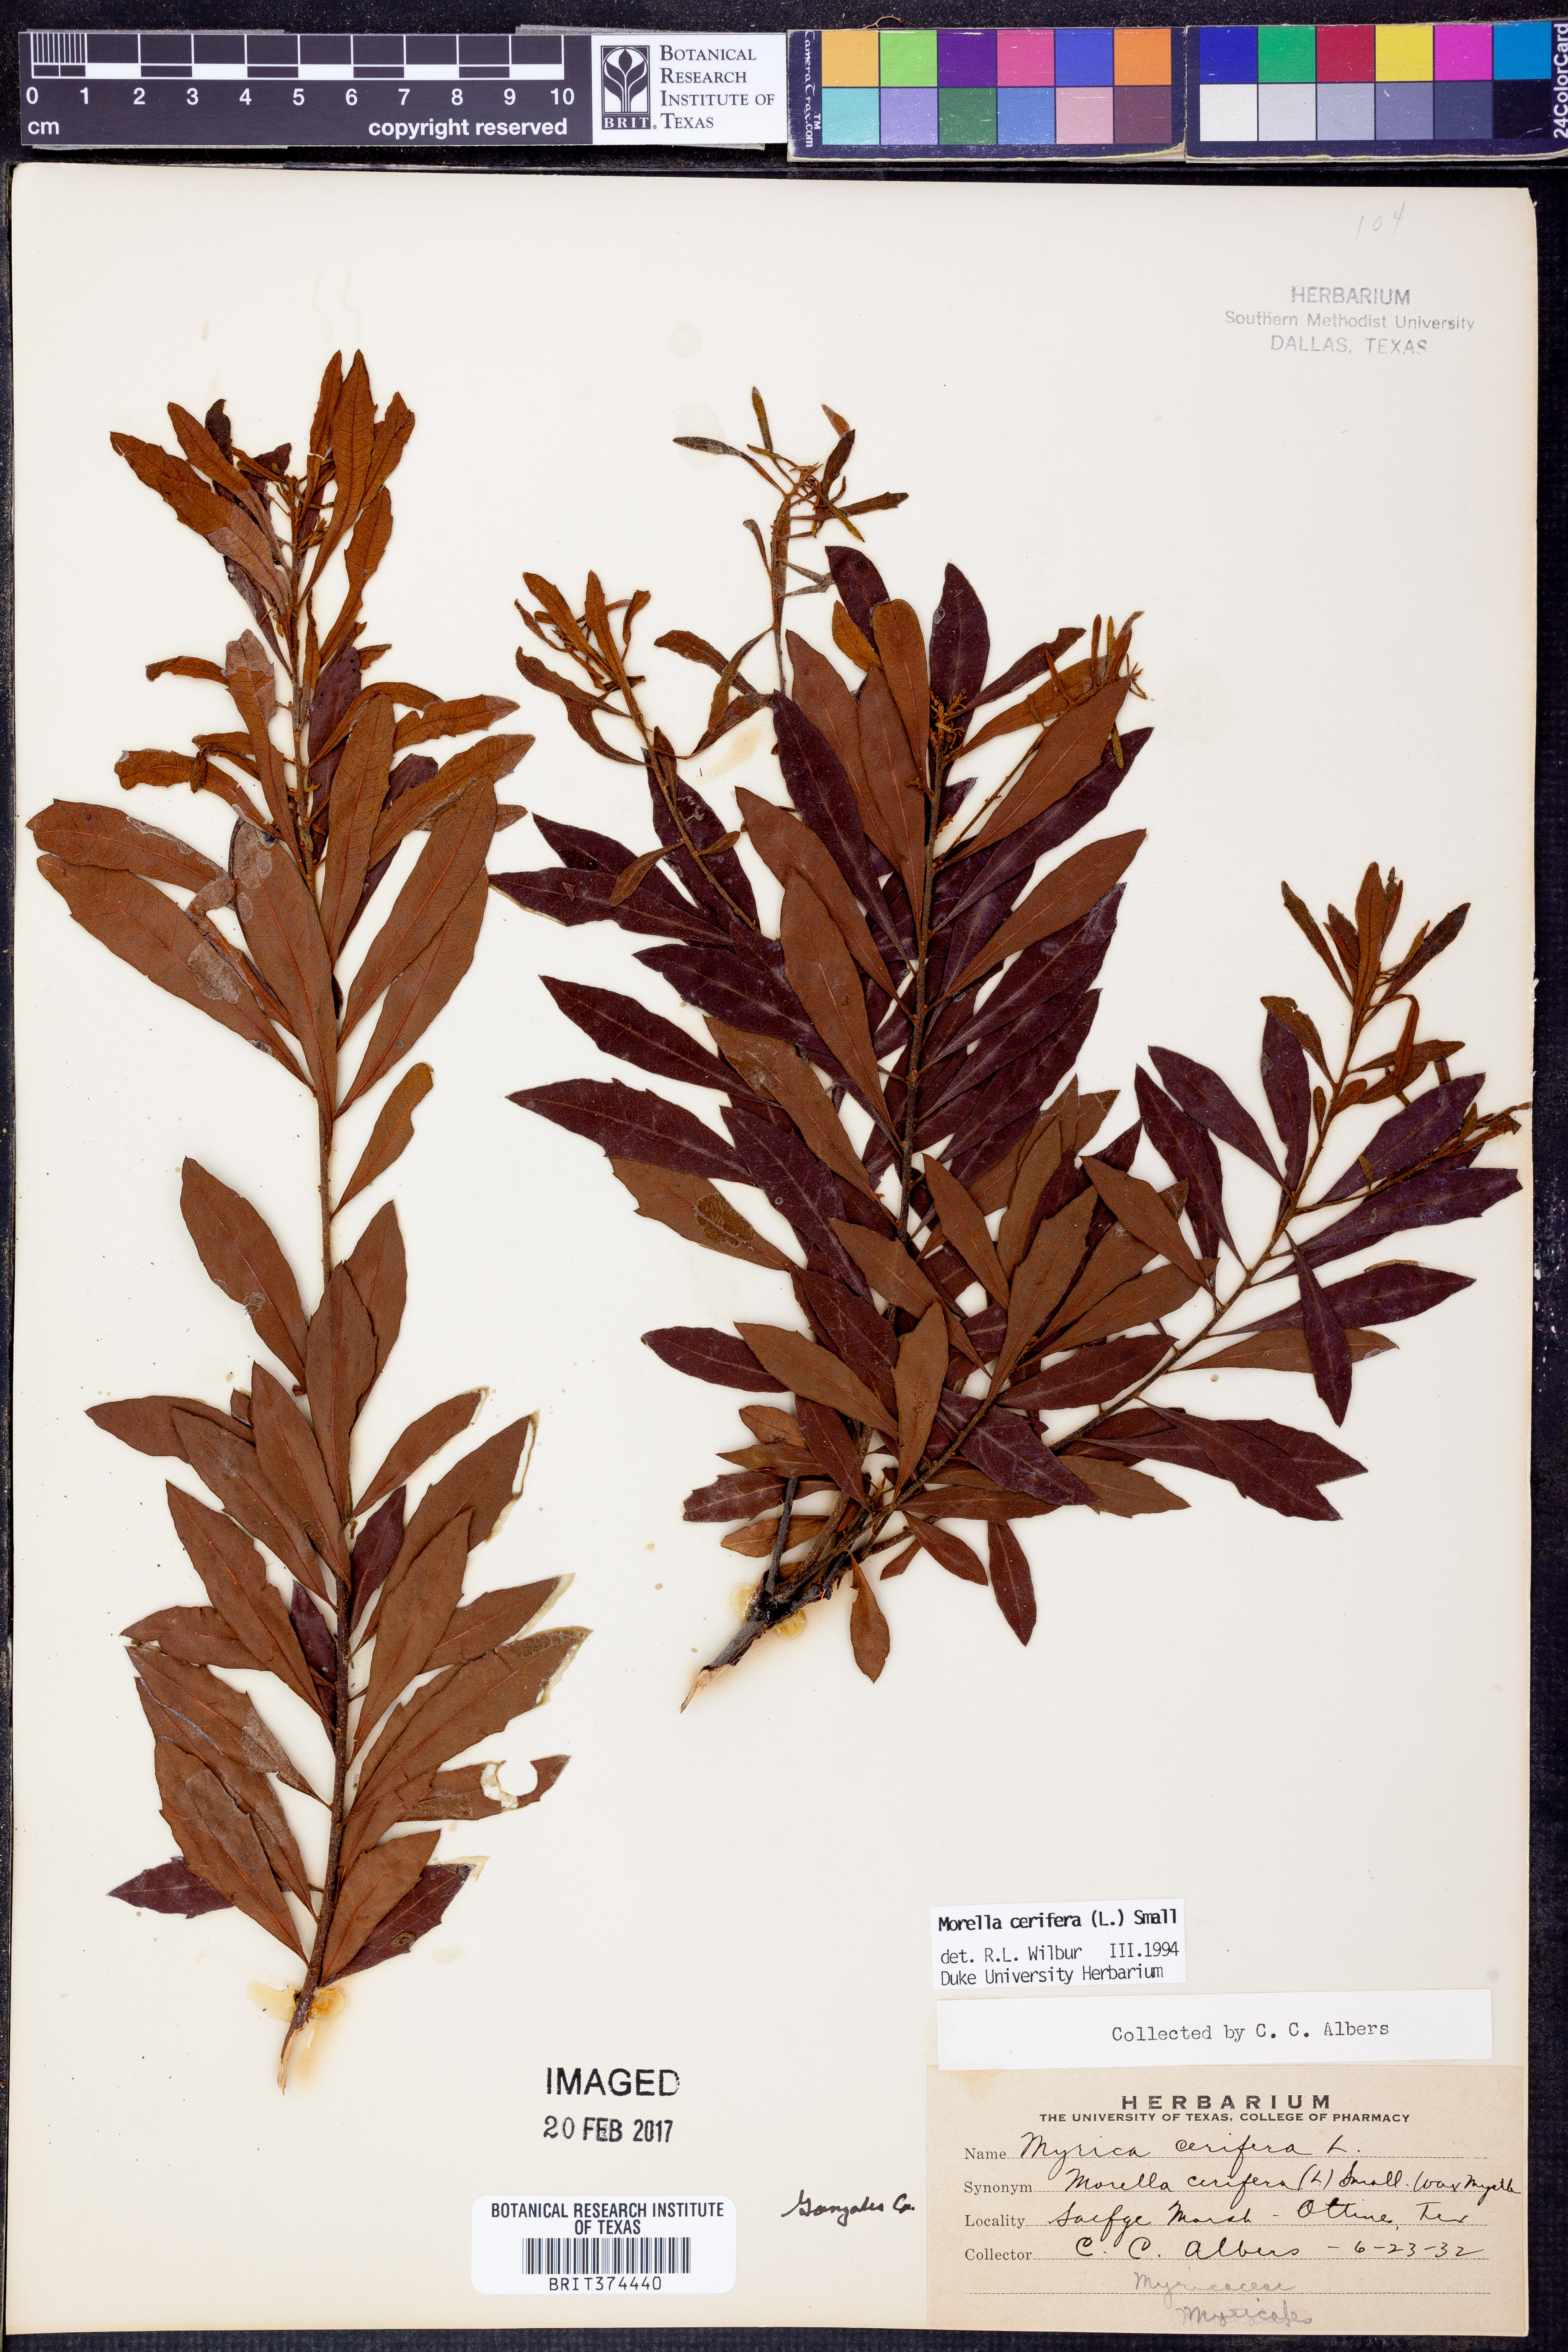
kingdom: Plantae
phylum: Tracheophyta
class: Magnoliopsida
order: Fagales
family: Myricaceae
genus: Morella
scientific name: Morella cerifera
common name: Wax myrtle
